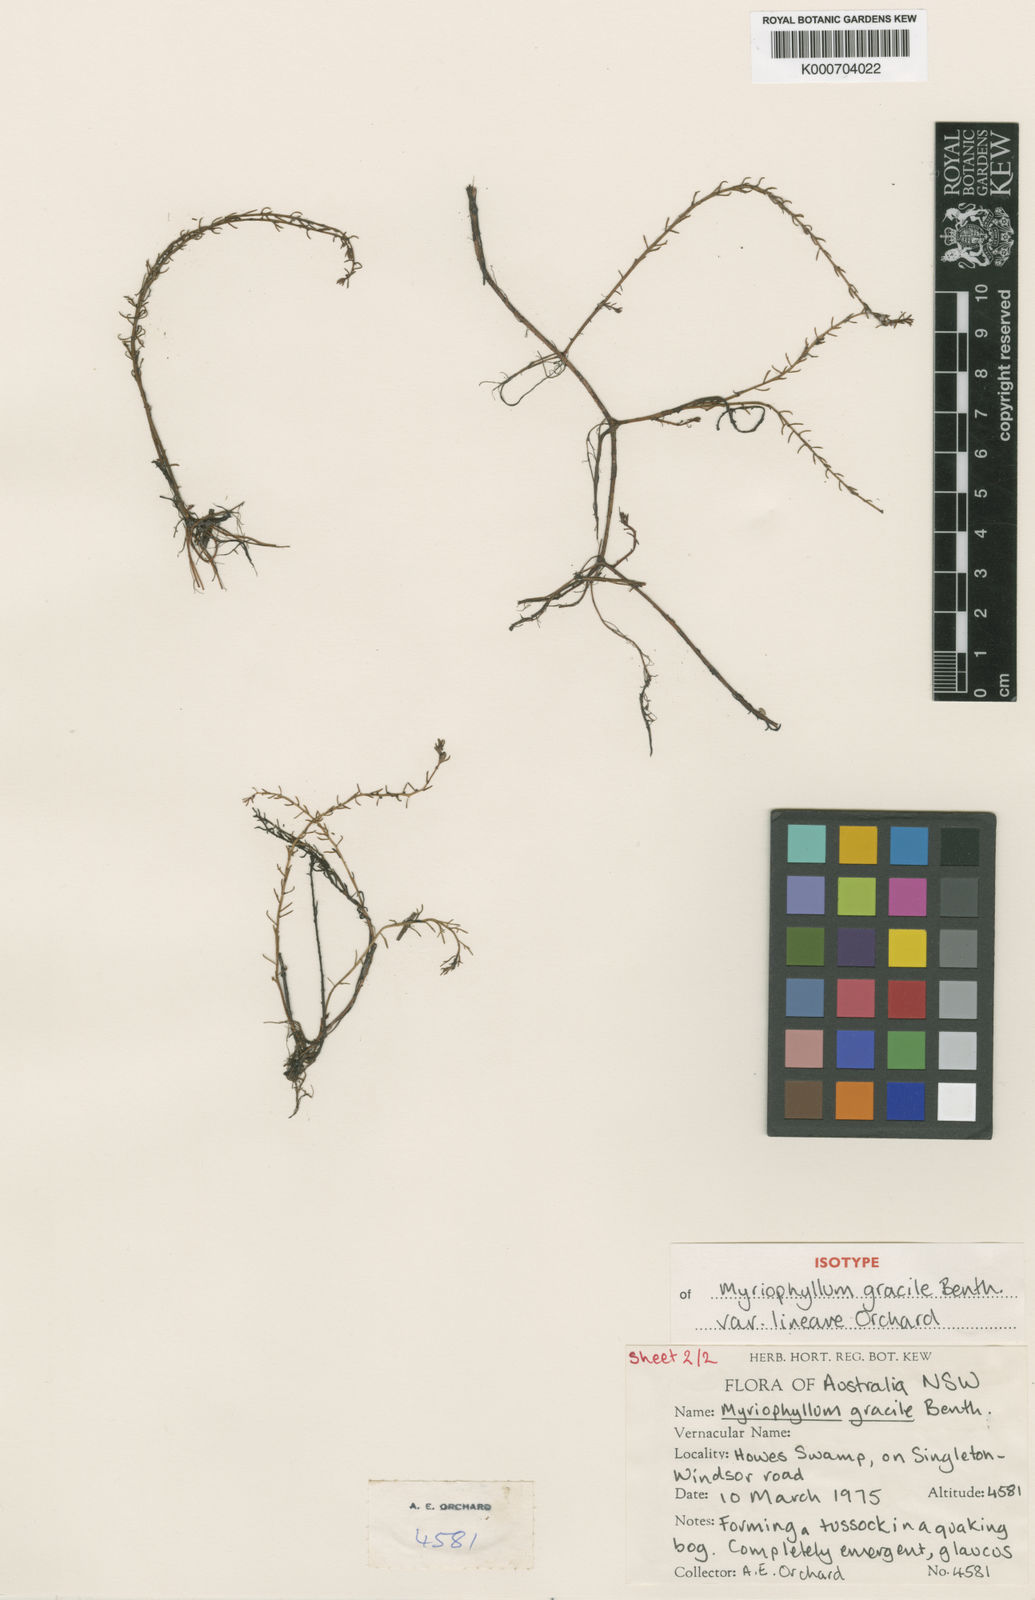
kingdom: Plantae
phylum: Tracheophyta
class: Magnoliopsida
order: Saxifragales
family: Haloragaceae
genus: Myriophyllum
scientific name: Myriophyllum gracile
